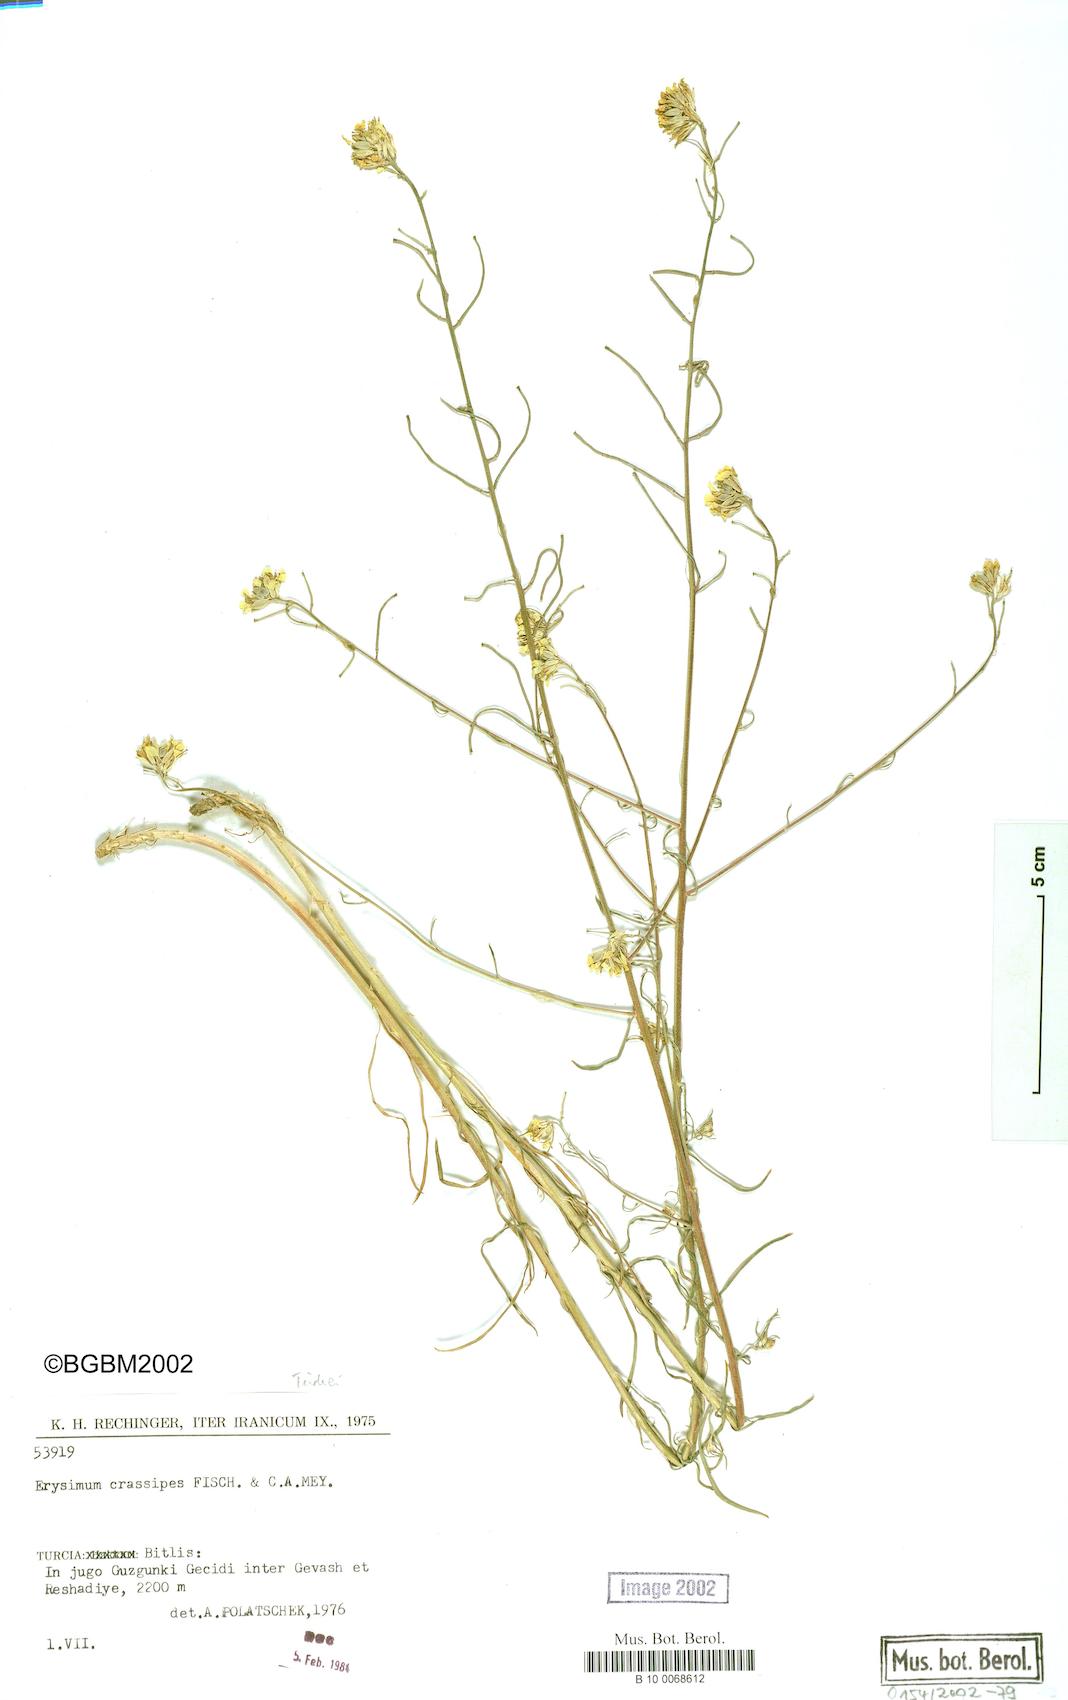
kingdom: Plantae
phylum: Tracheophyta
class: Magnoliopsida
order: Brassicales
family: Brassicaceae
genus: Erysimum
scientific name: Erysimum crassipes
